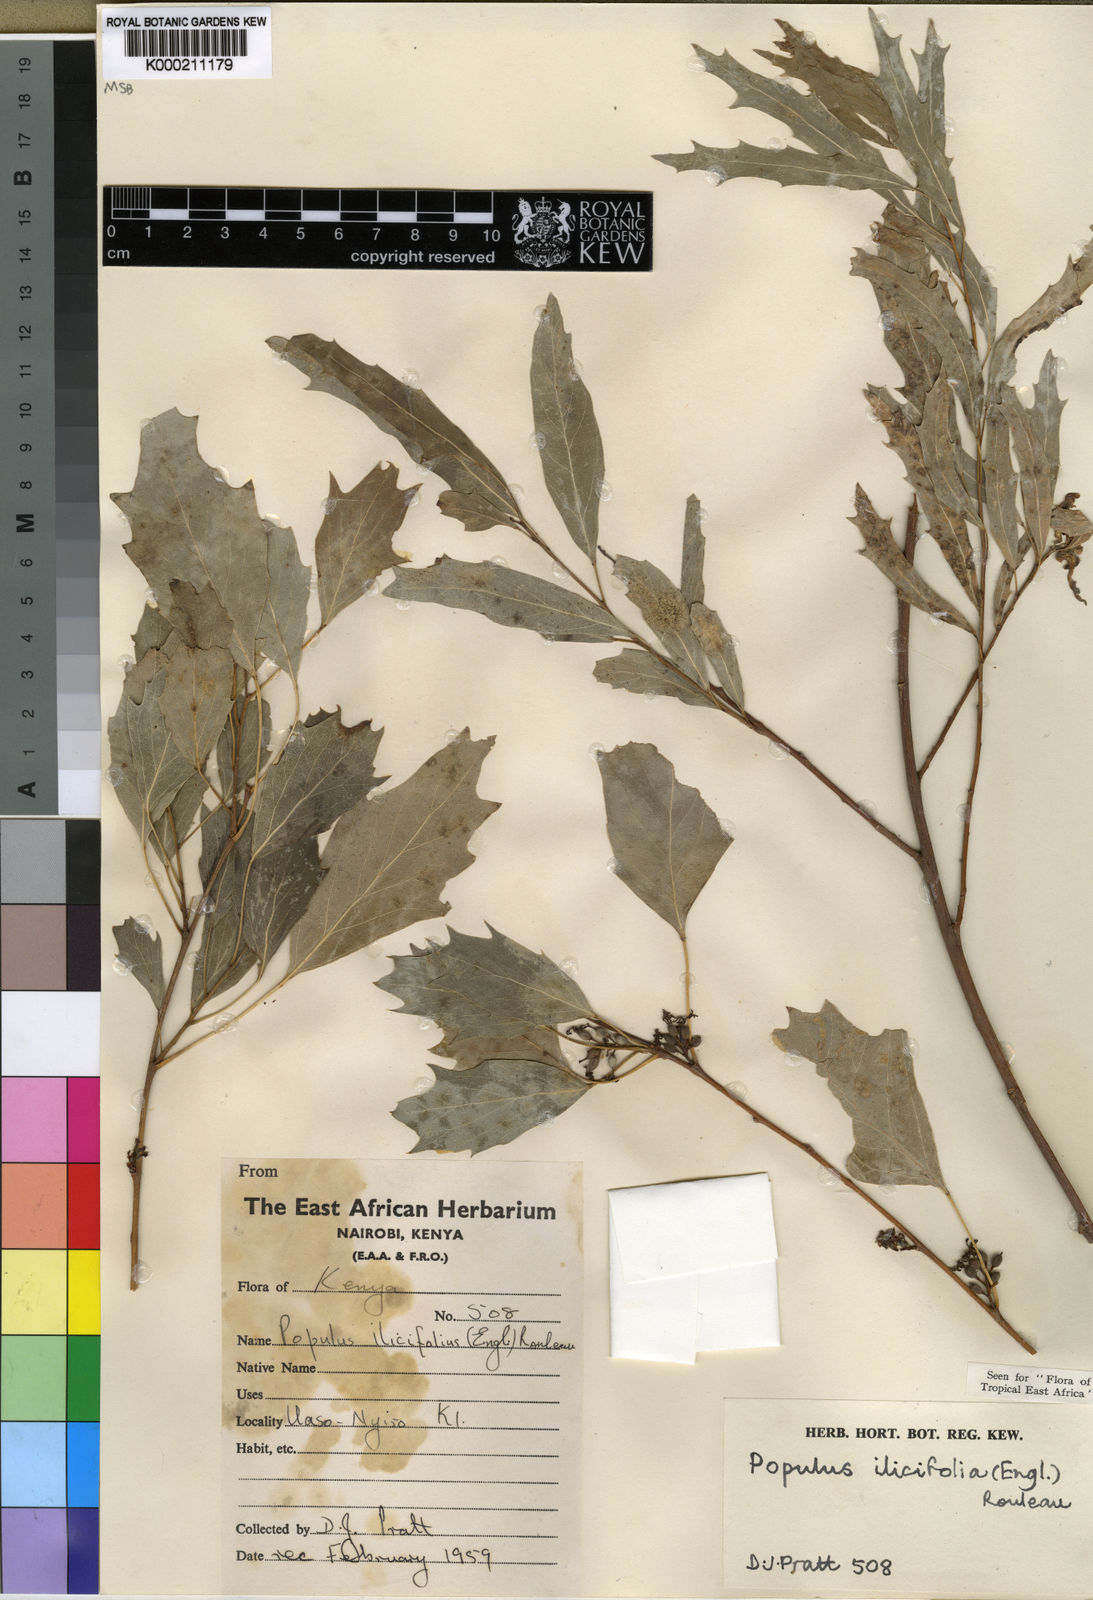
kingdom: Plantae
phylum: Tracheophyta
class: Magnoliopsida
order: Malpighiales
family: Salicaceae
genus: Populus
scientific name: Populus ilicifolia
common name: Tana river poplar
